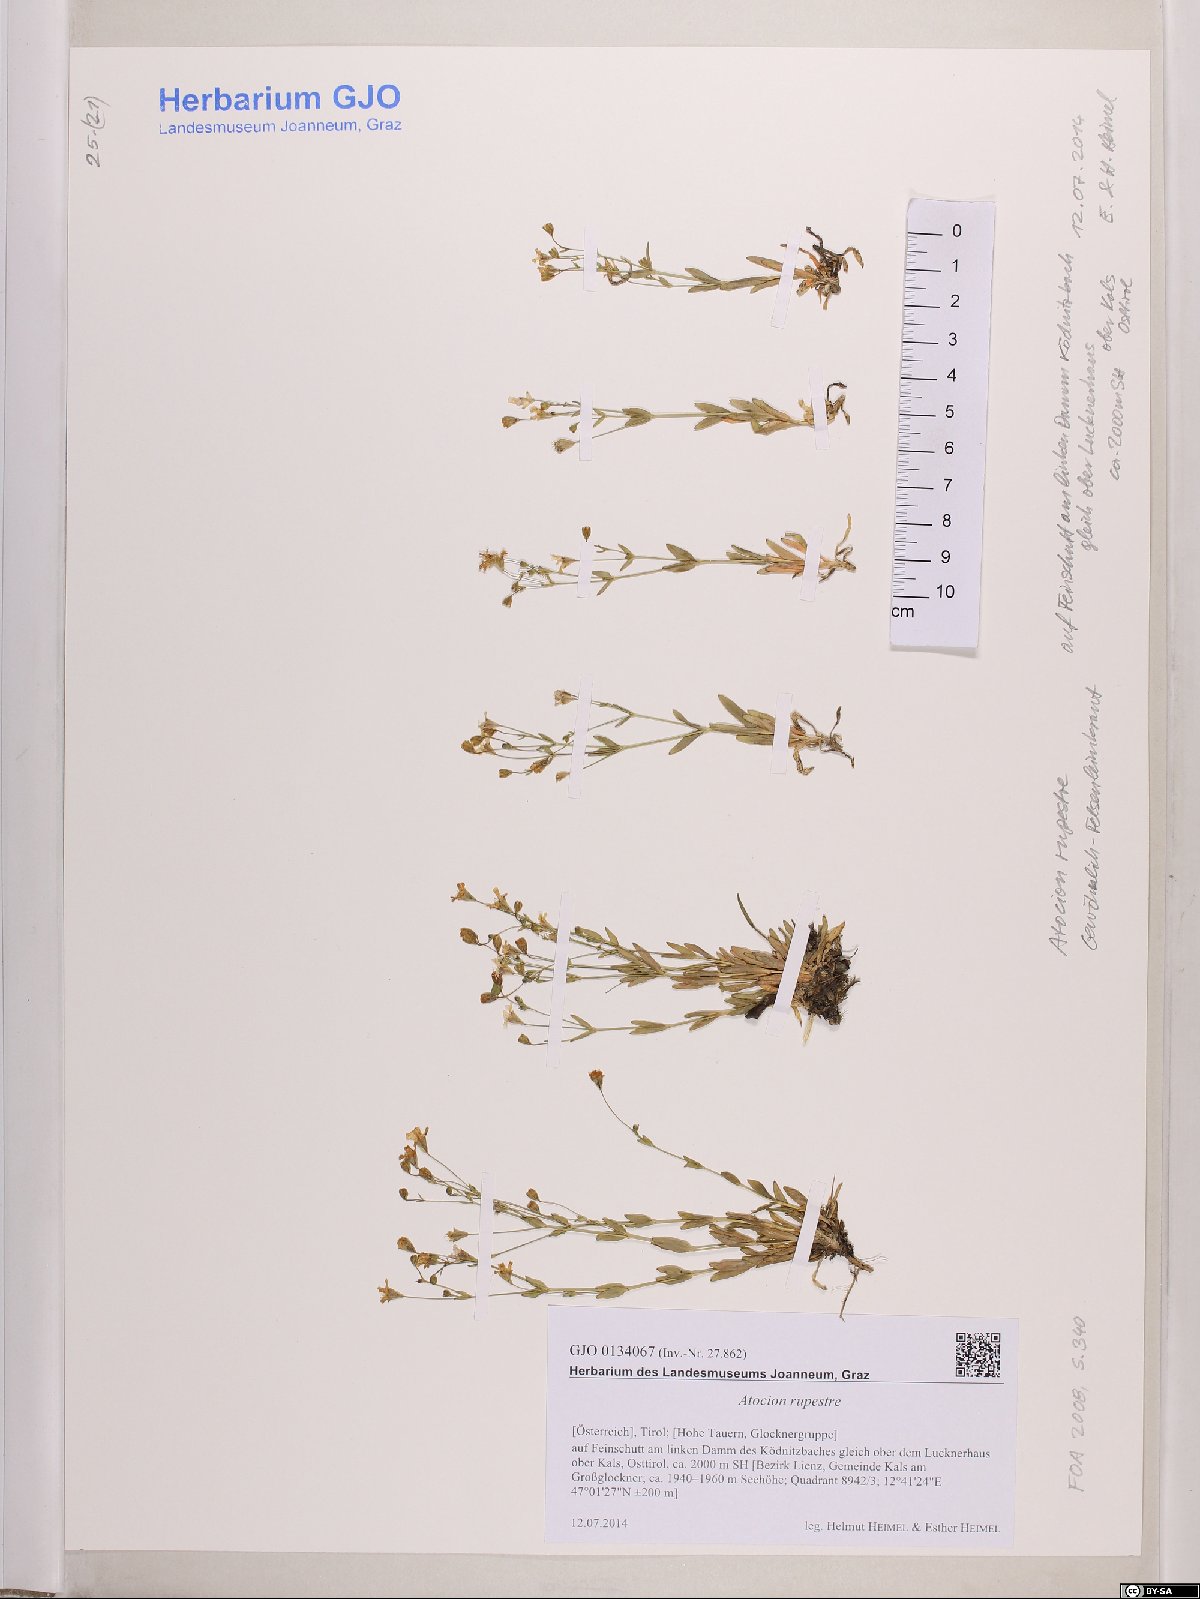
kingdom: Plantae
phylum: Tracheophyta
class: Magnoliopsida
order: Caryophyllales
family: Caryophyllaceae
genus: Atocion
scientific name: Atocion rupestre
